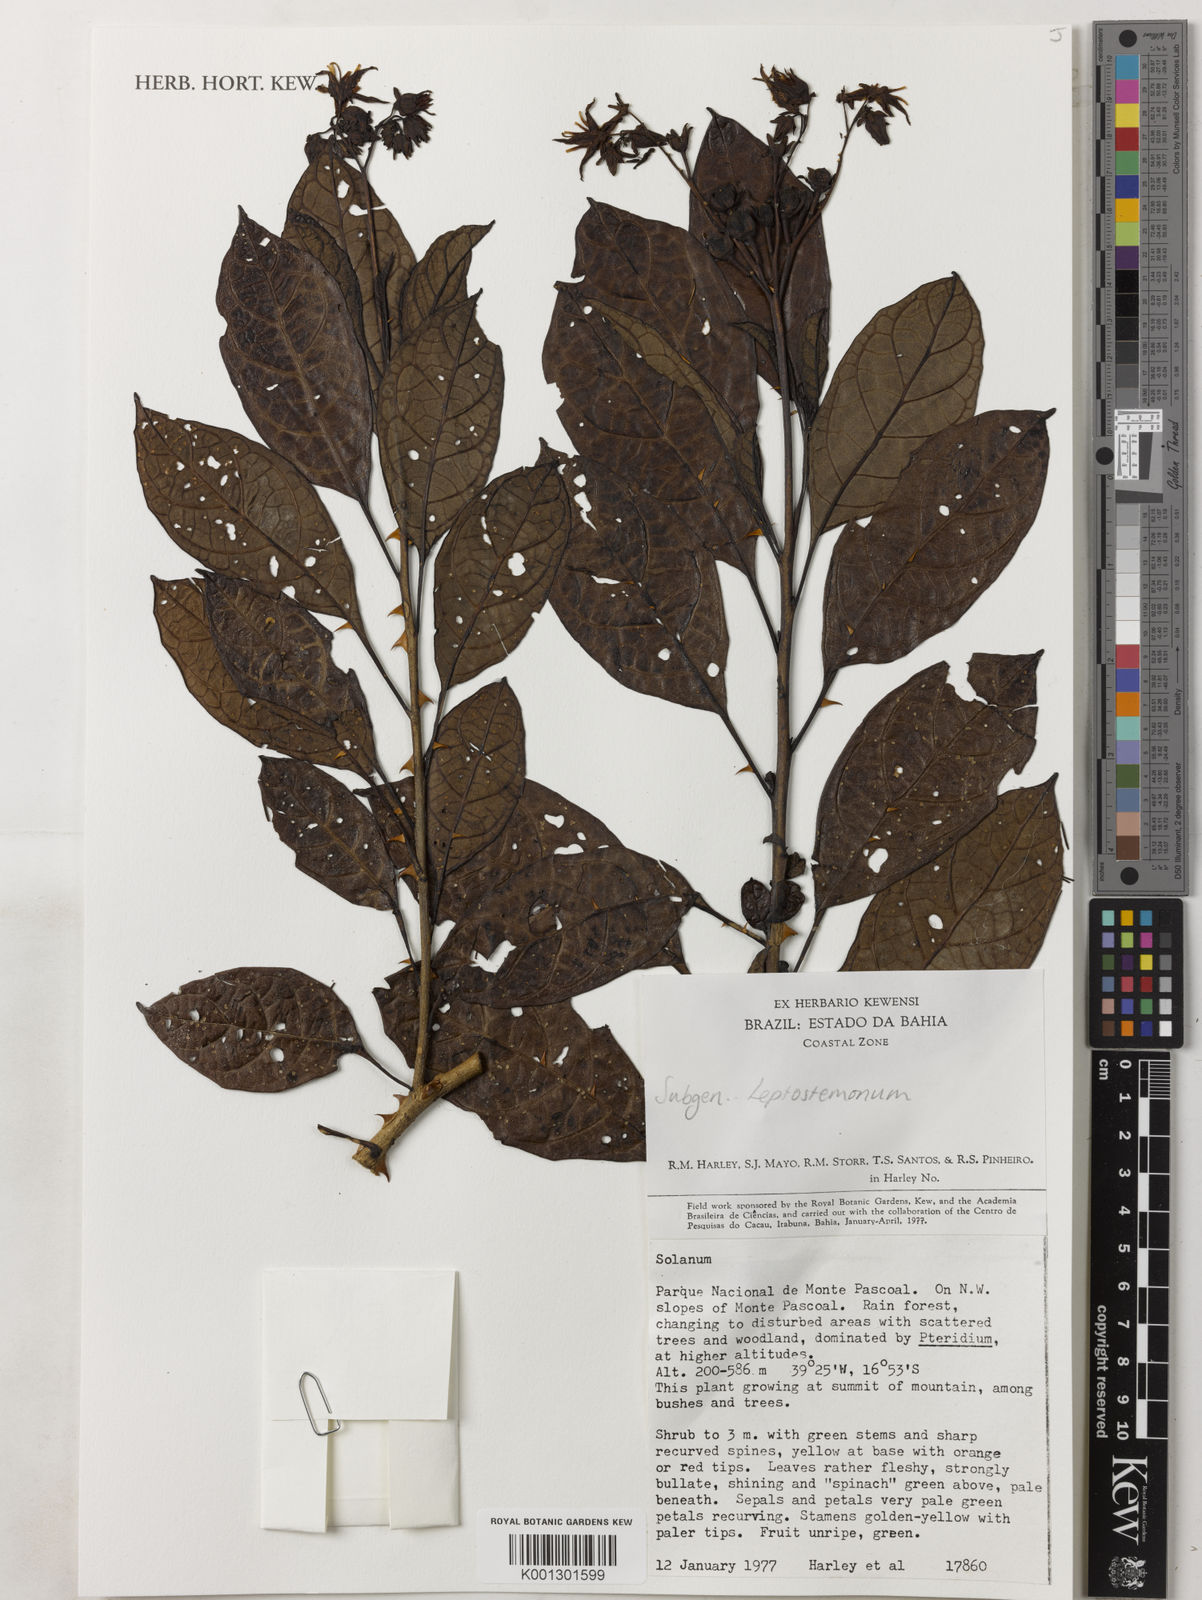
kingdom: Plantae
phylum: Tracheophyta
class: Magnoliopsida
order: Solanales
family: Solanaceae
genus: Solanum
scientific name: Solanum insidiosum
